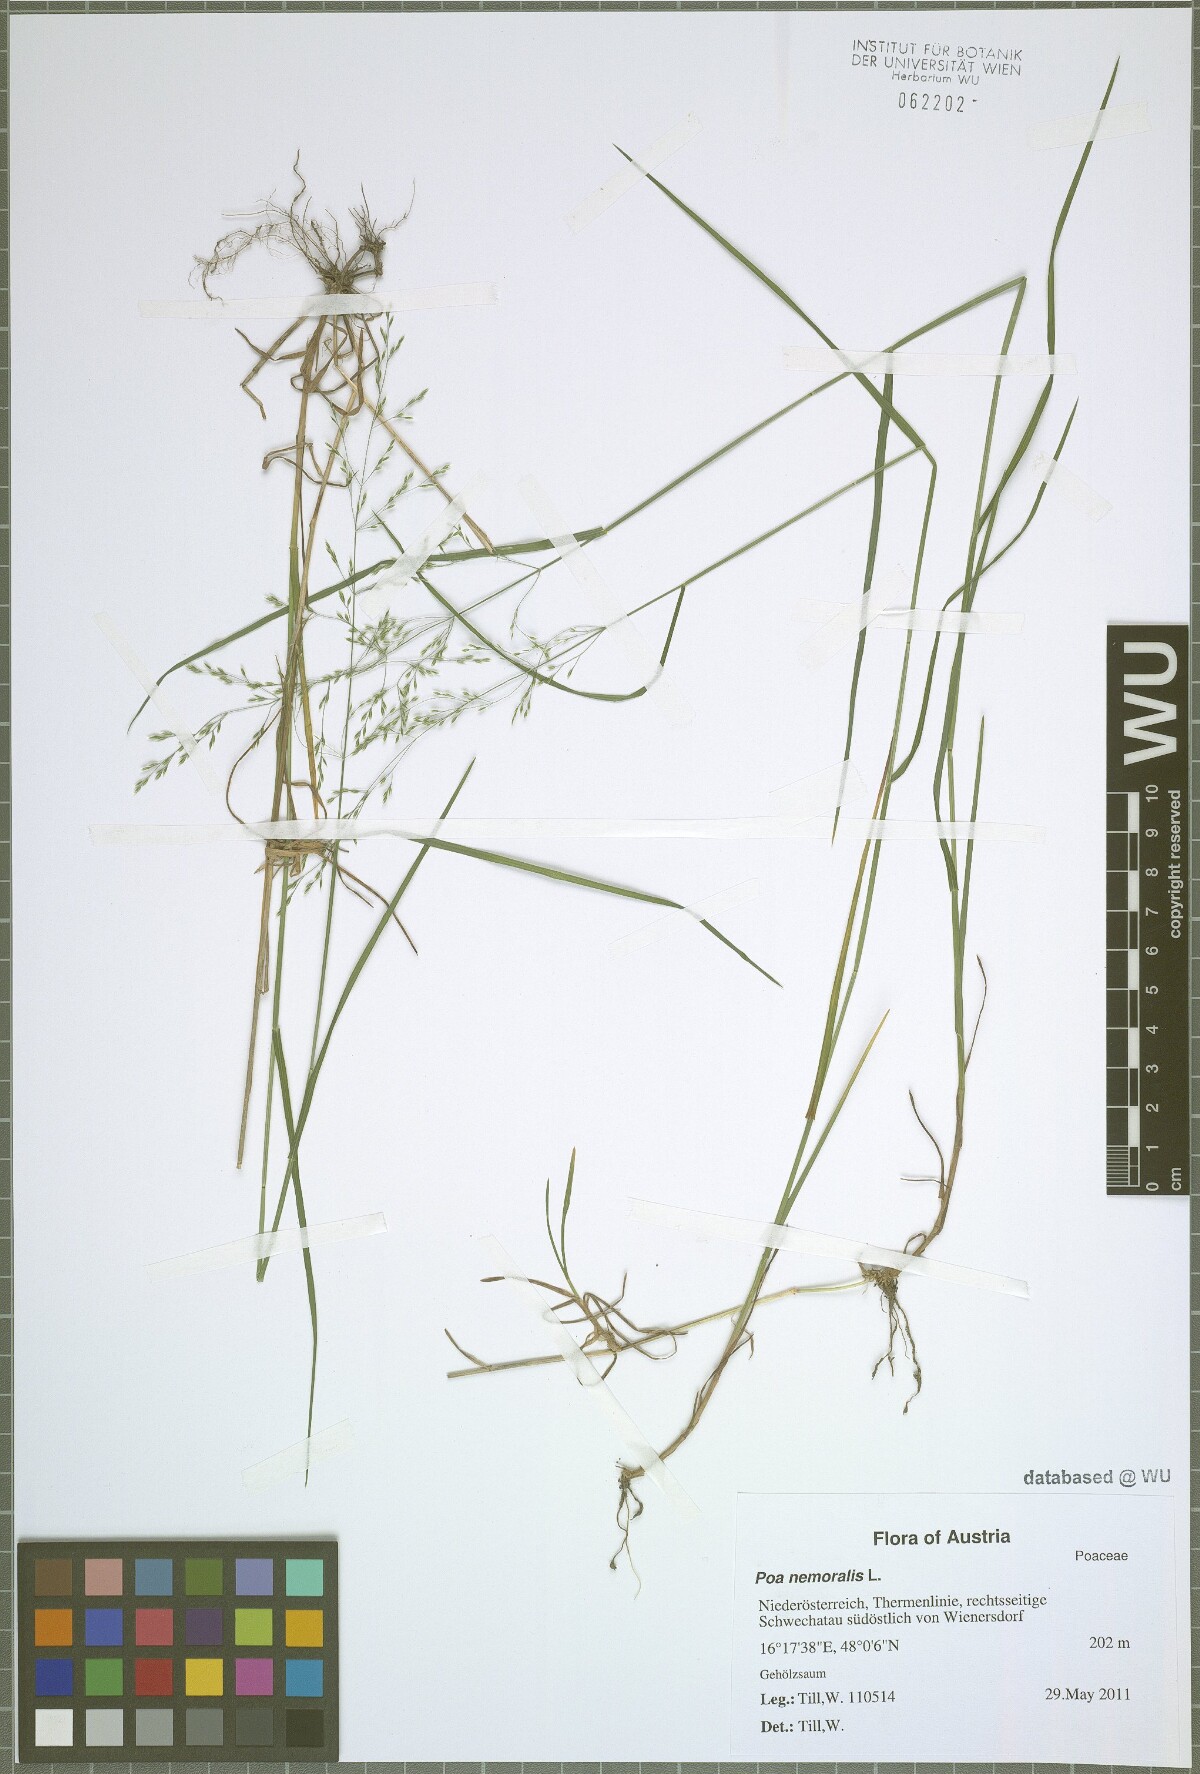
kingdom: Plantae
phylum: Tracheophyta
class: Liliopsida
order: Poales
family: Poaceae
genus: Poa
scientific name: Poa nemoralis
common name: Wood bluegrass
